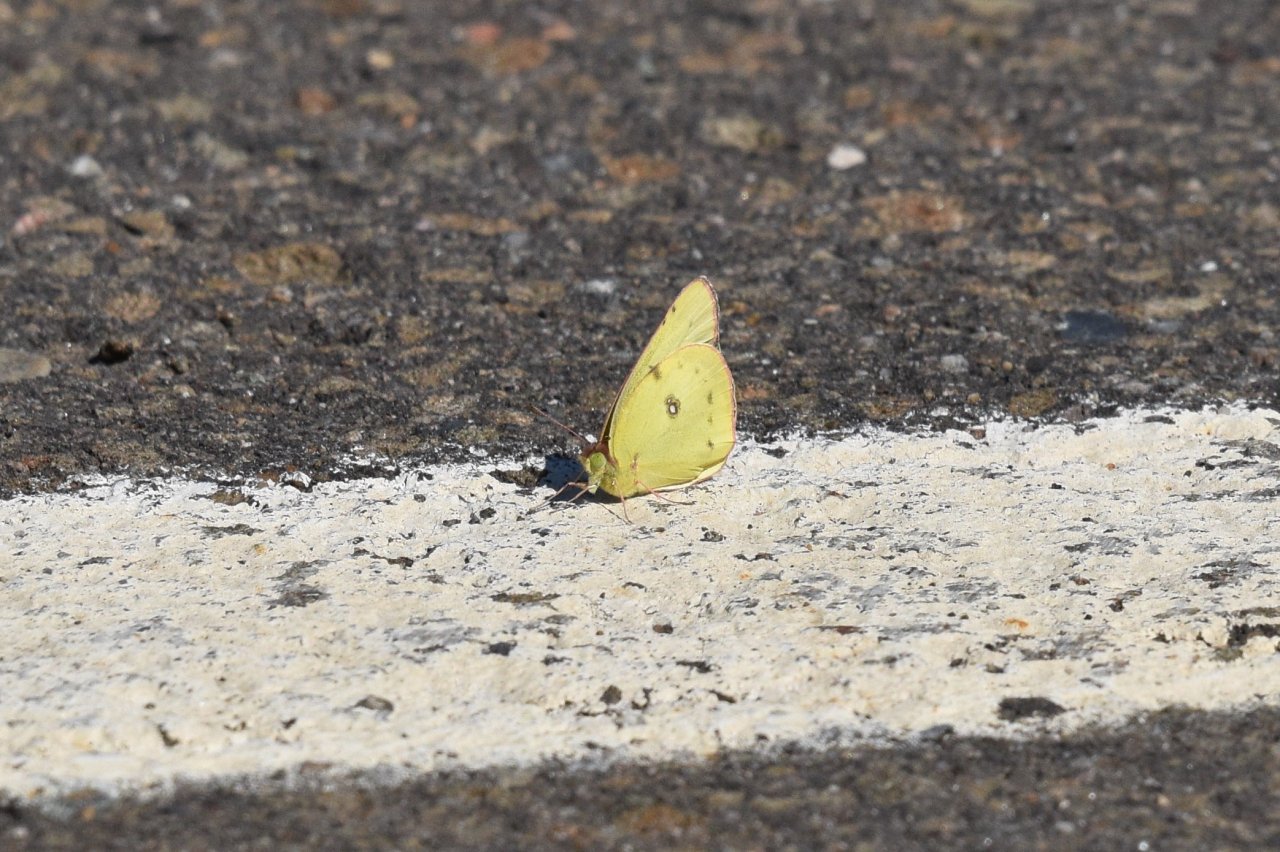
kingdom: Animalia
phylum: Arthropoda
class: Insecta
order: Lepidoptera
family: Pieridae
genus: Colias
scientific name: Colias philodice
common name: Clouded Sulphur
